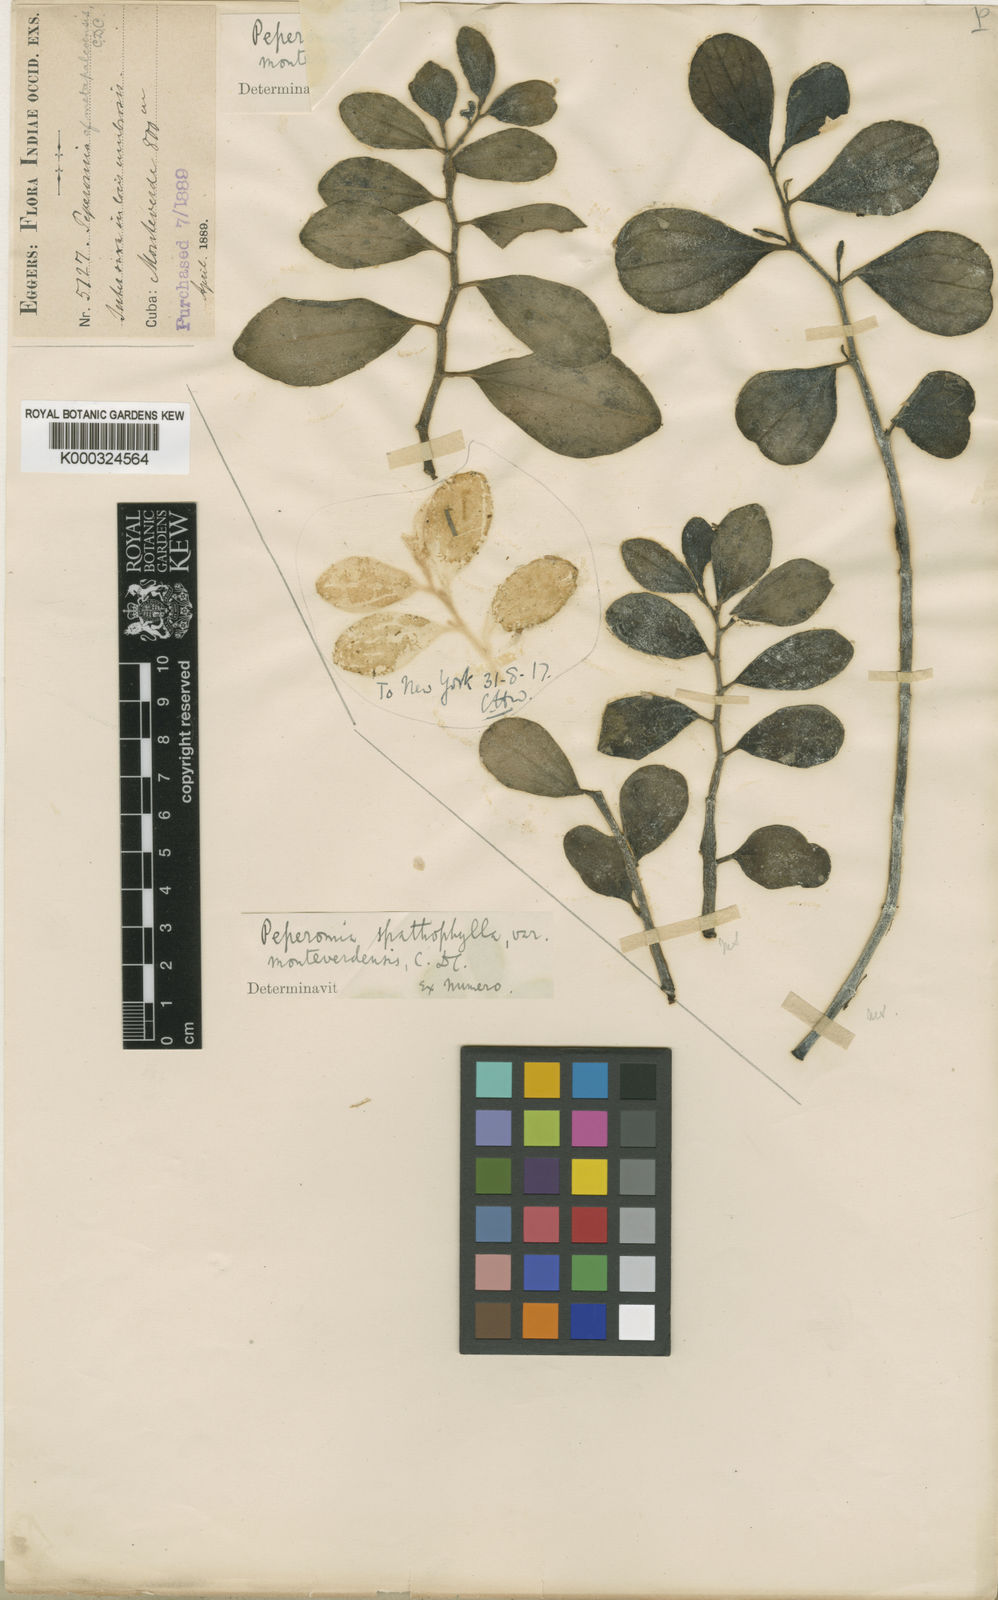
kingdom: Plantae
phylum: Tracheophyta
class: Magnoliopsida
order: Piperales
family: Piperaceae
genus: Peperomia
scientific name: Peperomia guadaloupensis
